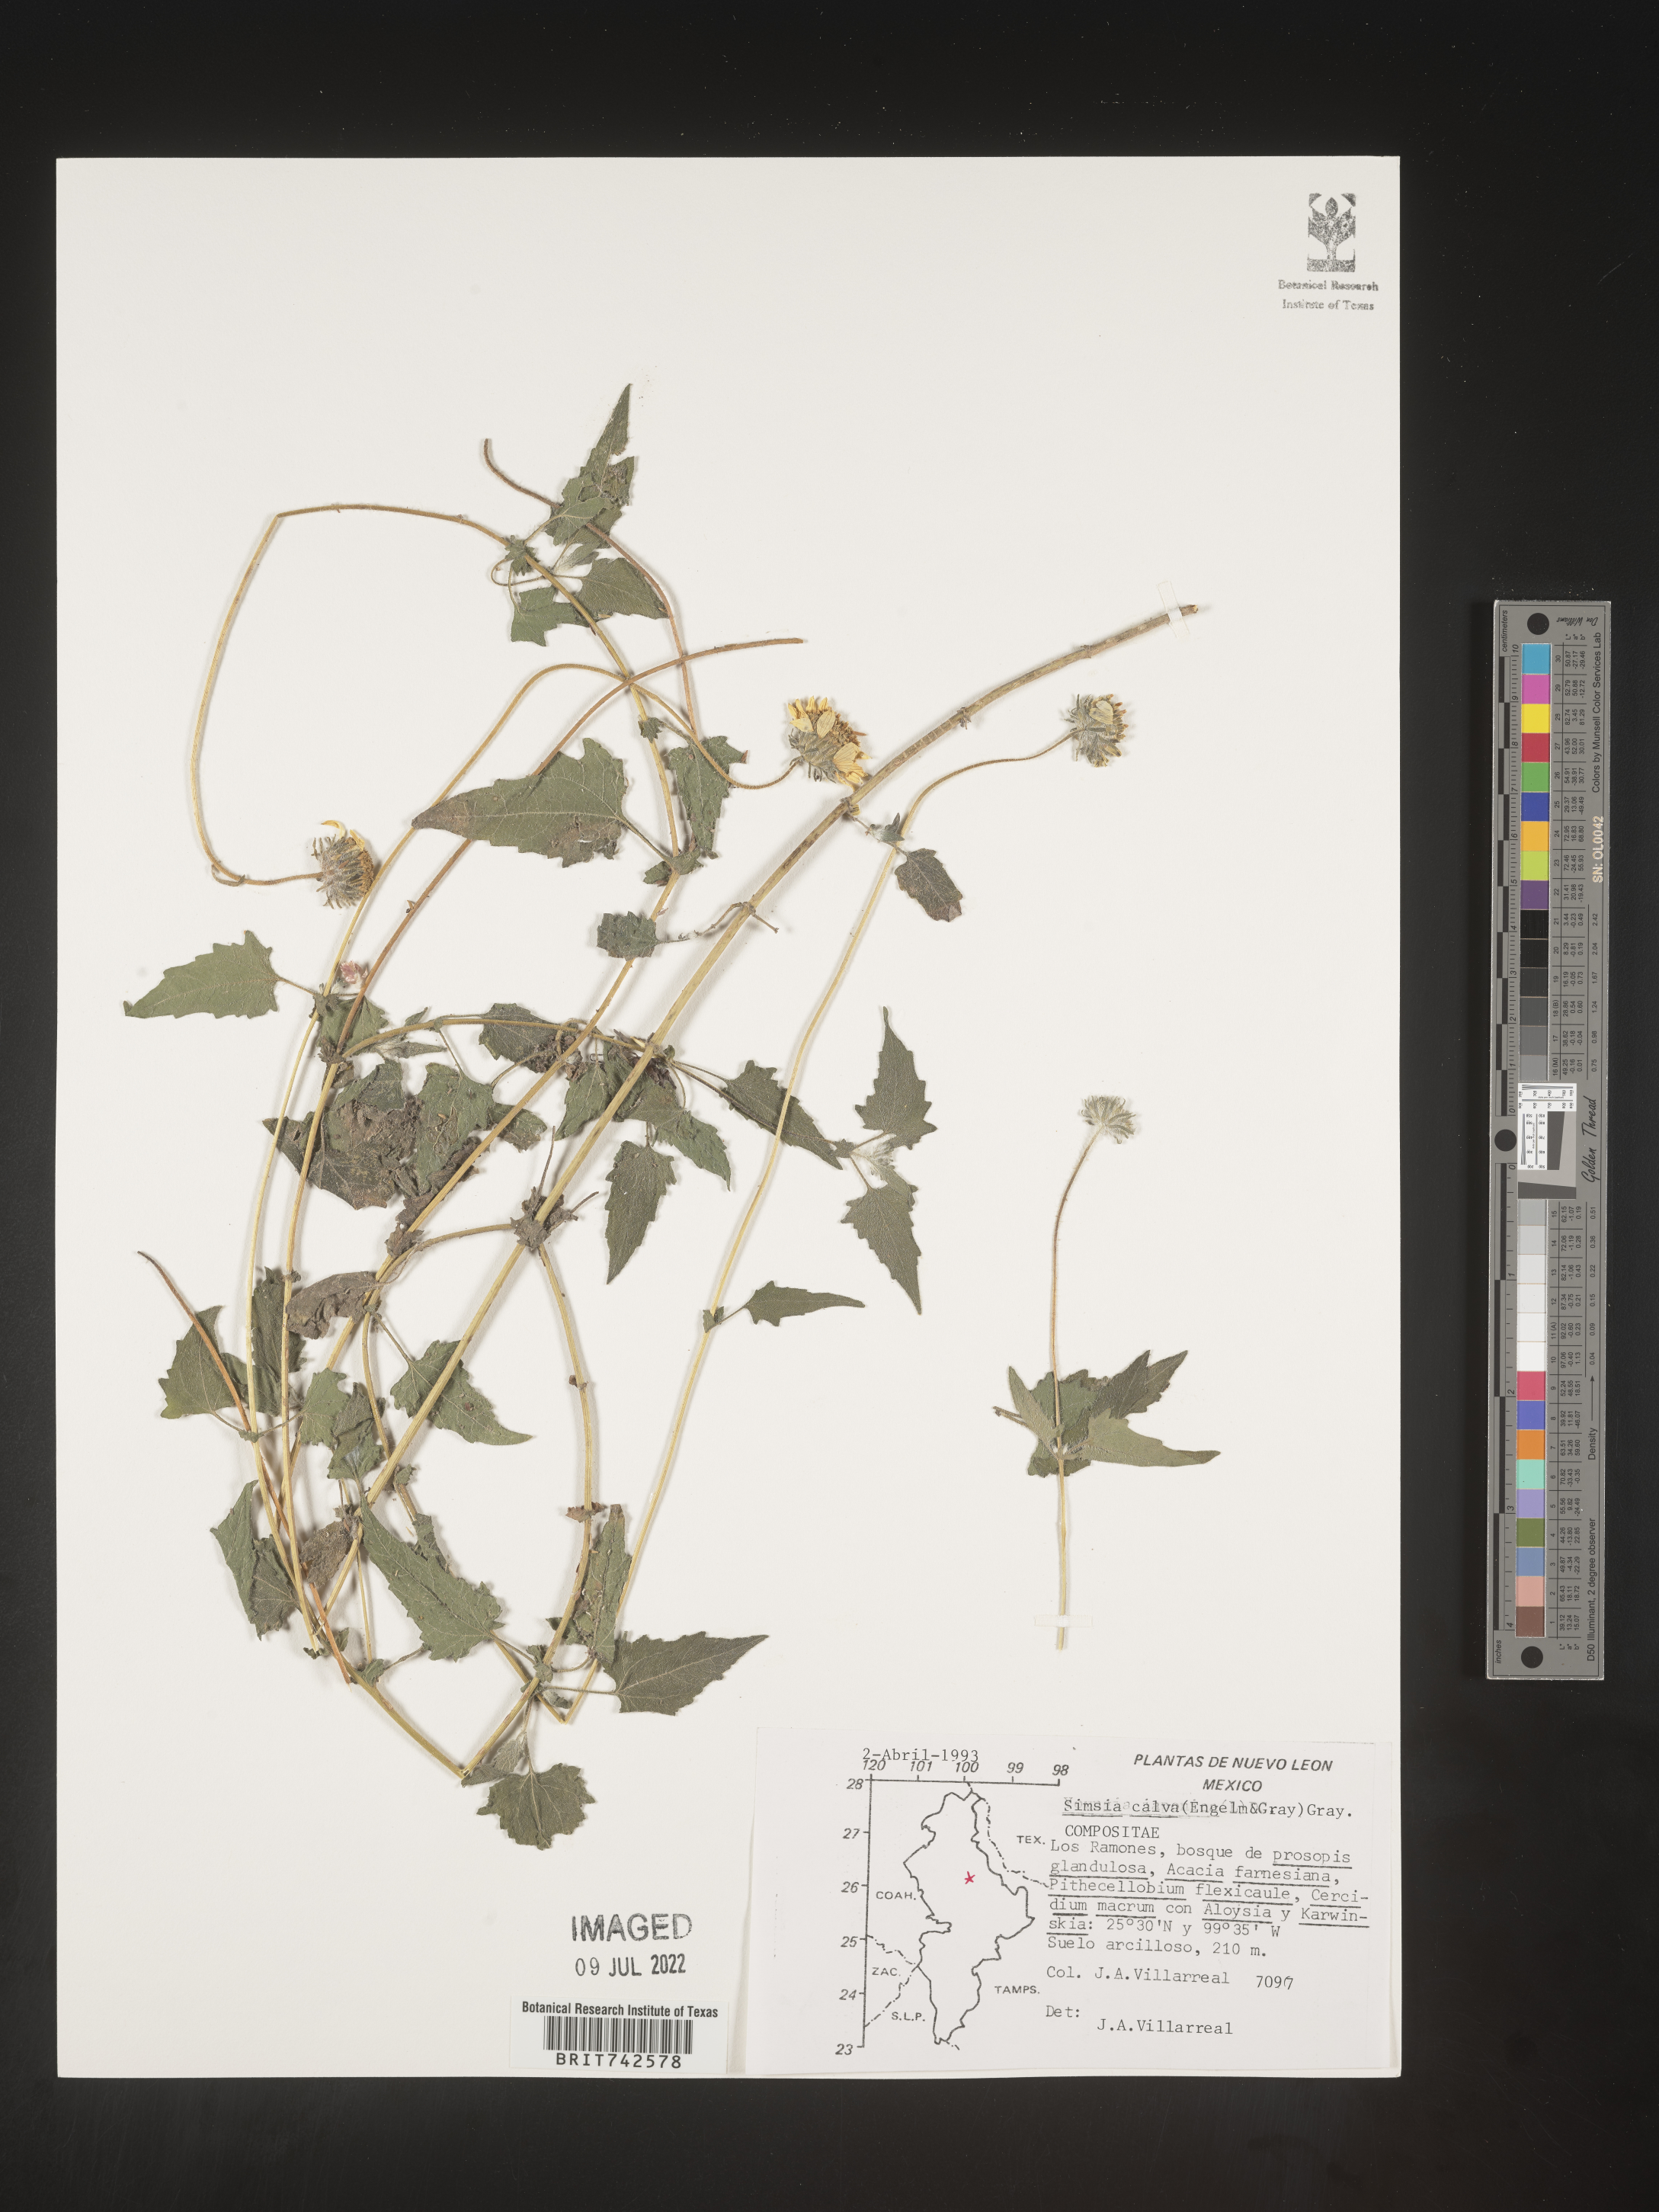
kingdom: Plantae
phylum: Tracheophyta
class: Magnoliopsida
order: Asterales
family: Asteraceae
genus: Simsia
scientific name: Simsia
